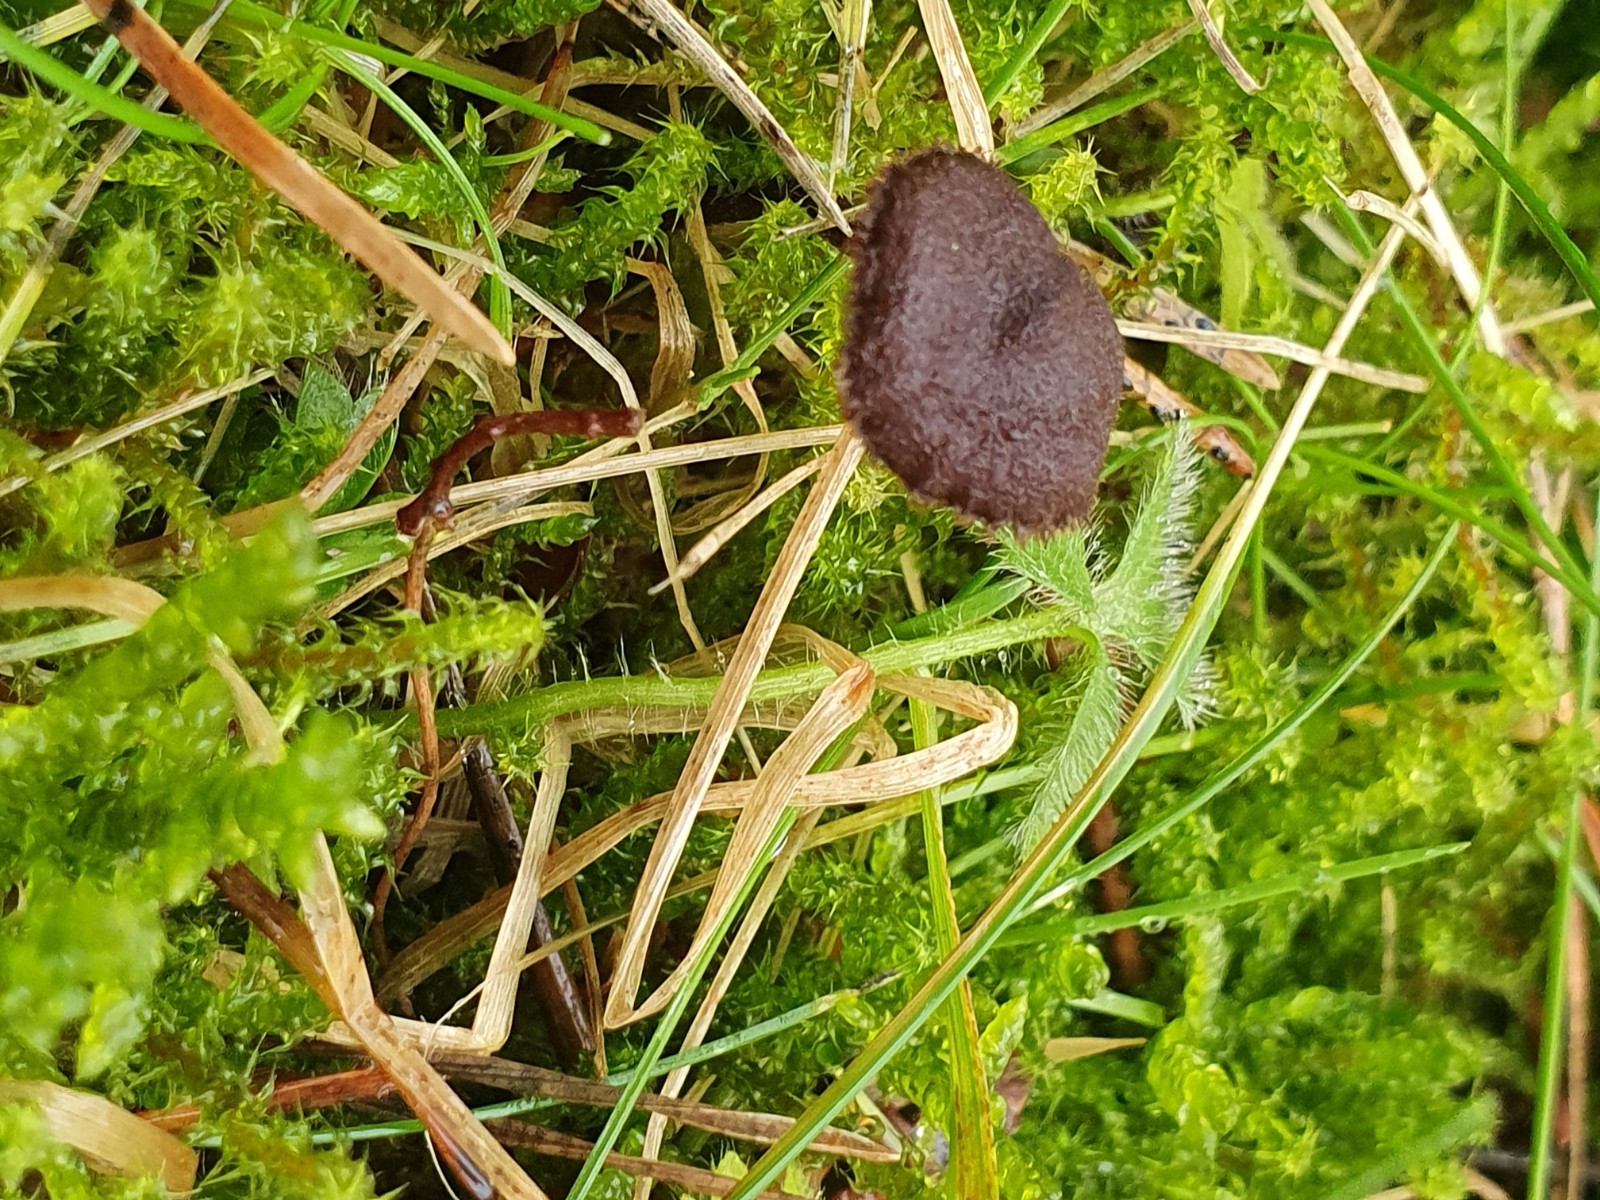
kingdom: Fungi
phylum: Basidiomycota
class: Agaricomycetes
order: Russulales
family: Auriscalpiaceae
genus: Auriscalpium
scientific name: Auriscalpium vulgare
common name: koglepigsvamp
